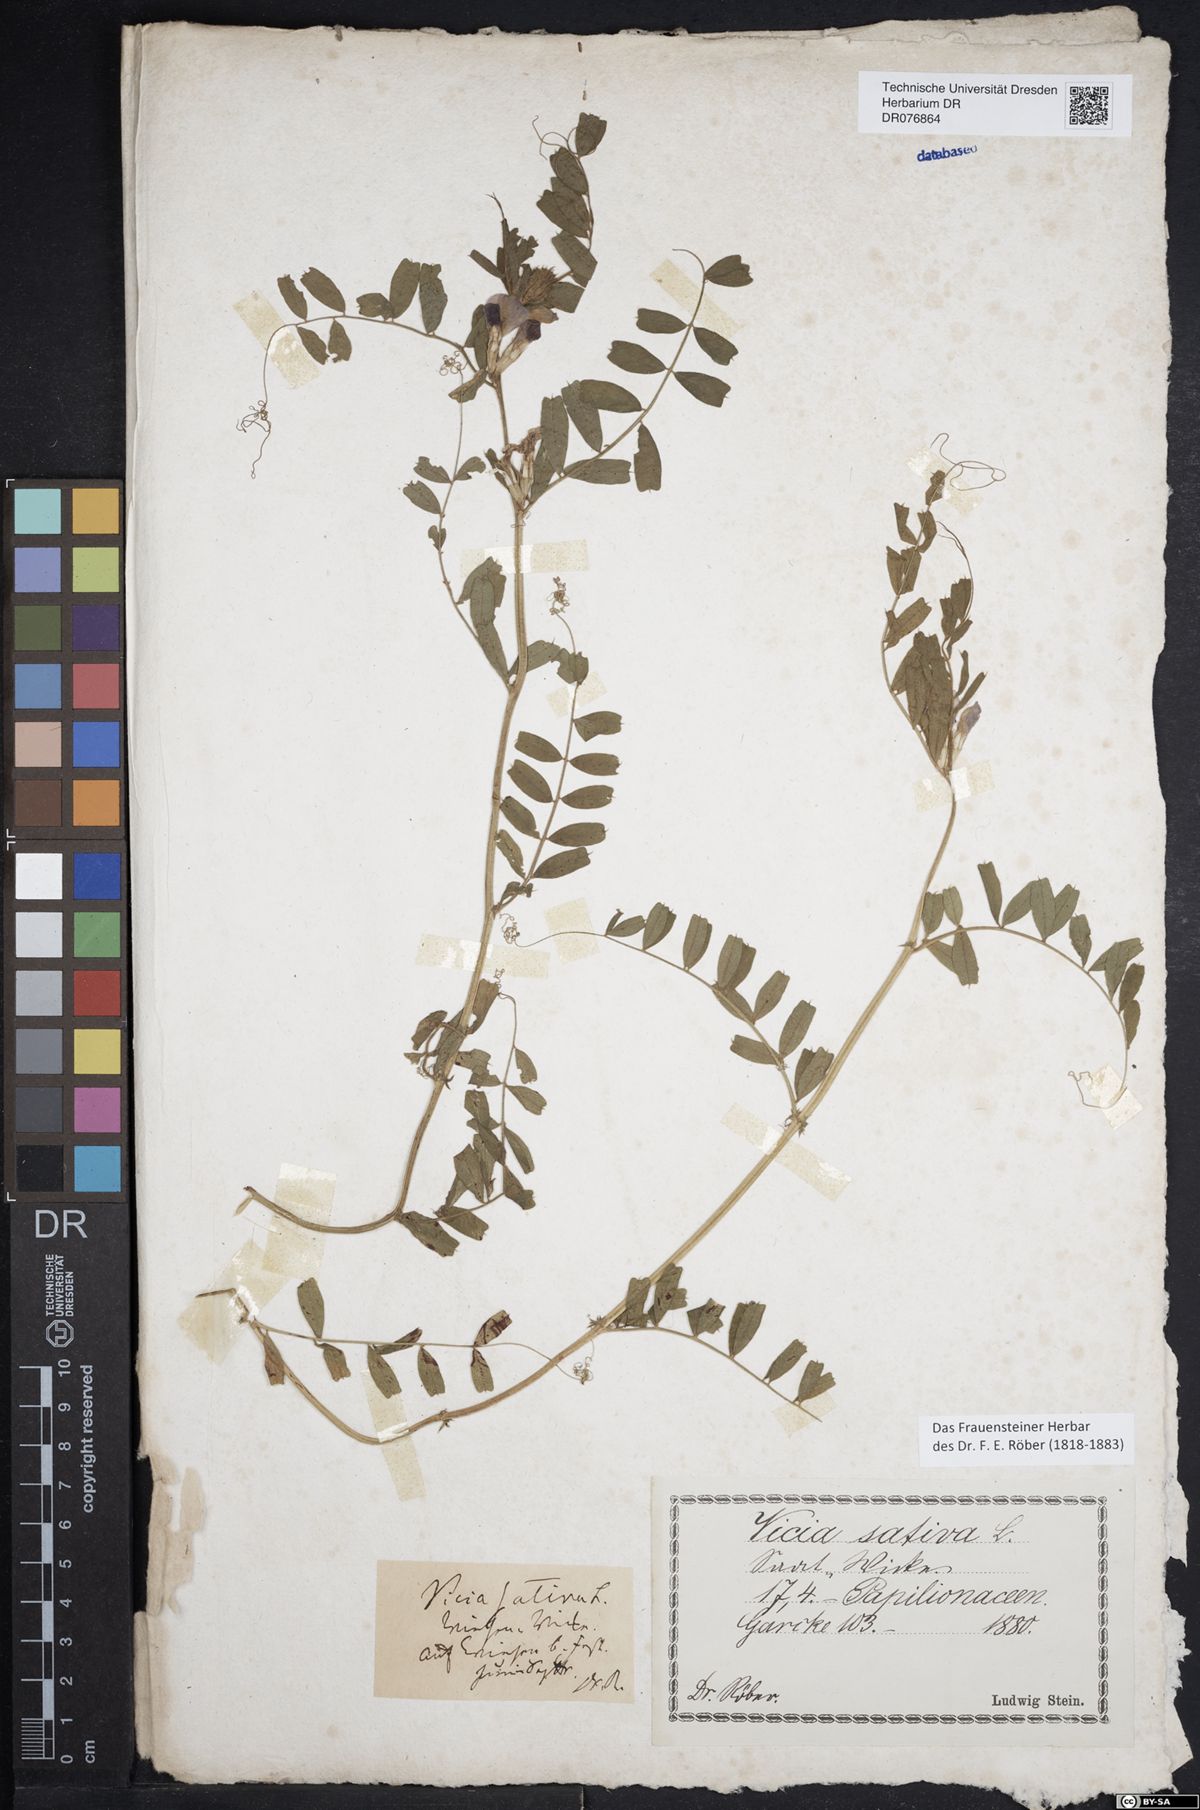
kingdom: Plantae
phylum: Tracheophyta
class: Magnoliopsida
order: Fabales
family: Fabaceae
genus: Vicia
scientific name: Vicia sativa
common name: Garden vetch
